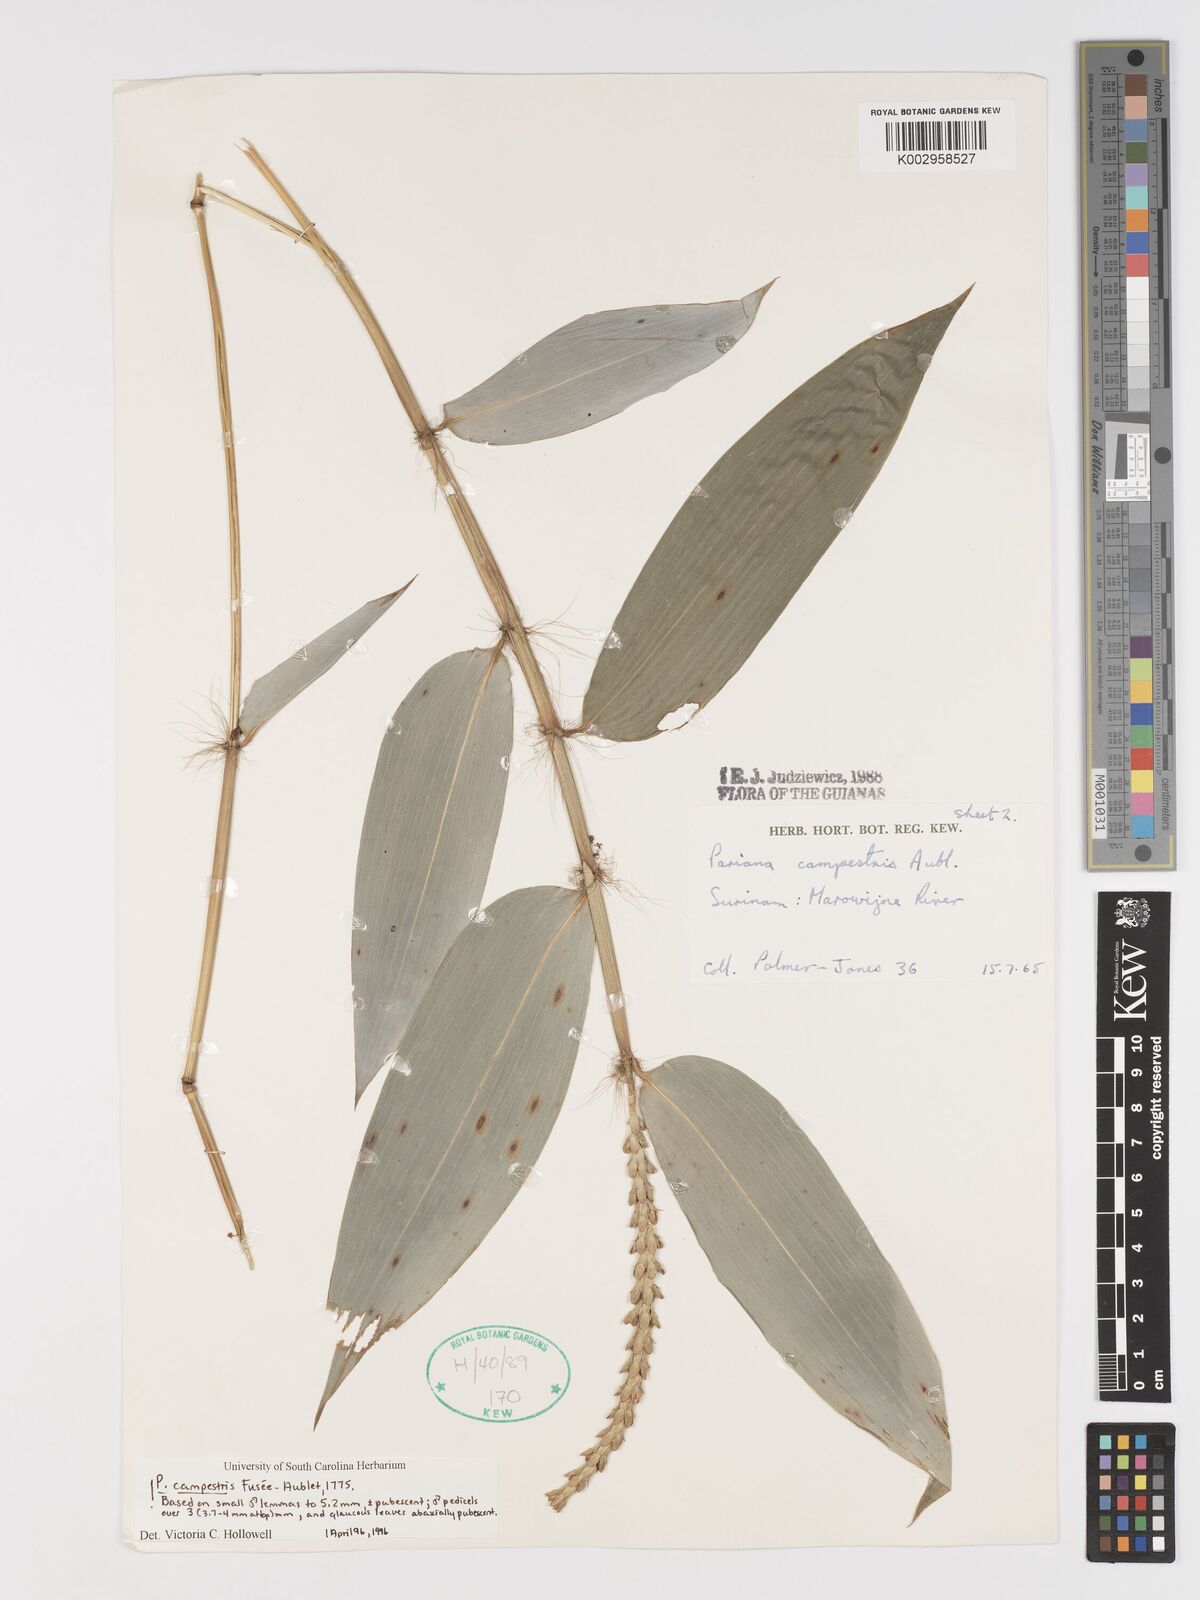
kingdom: Plantae
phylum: Tracheophyta
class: Liliopsida
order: Poales
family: Poaceae
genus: Pariana
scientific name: Pariana campestris
